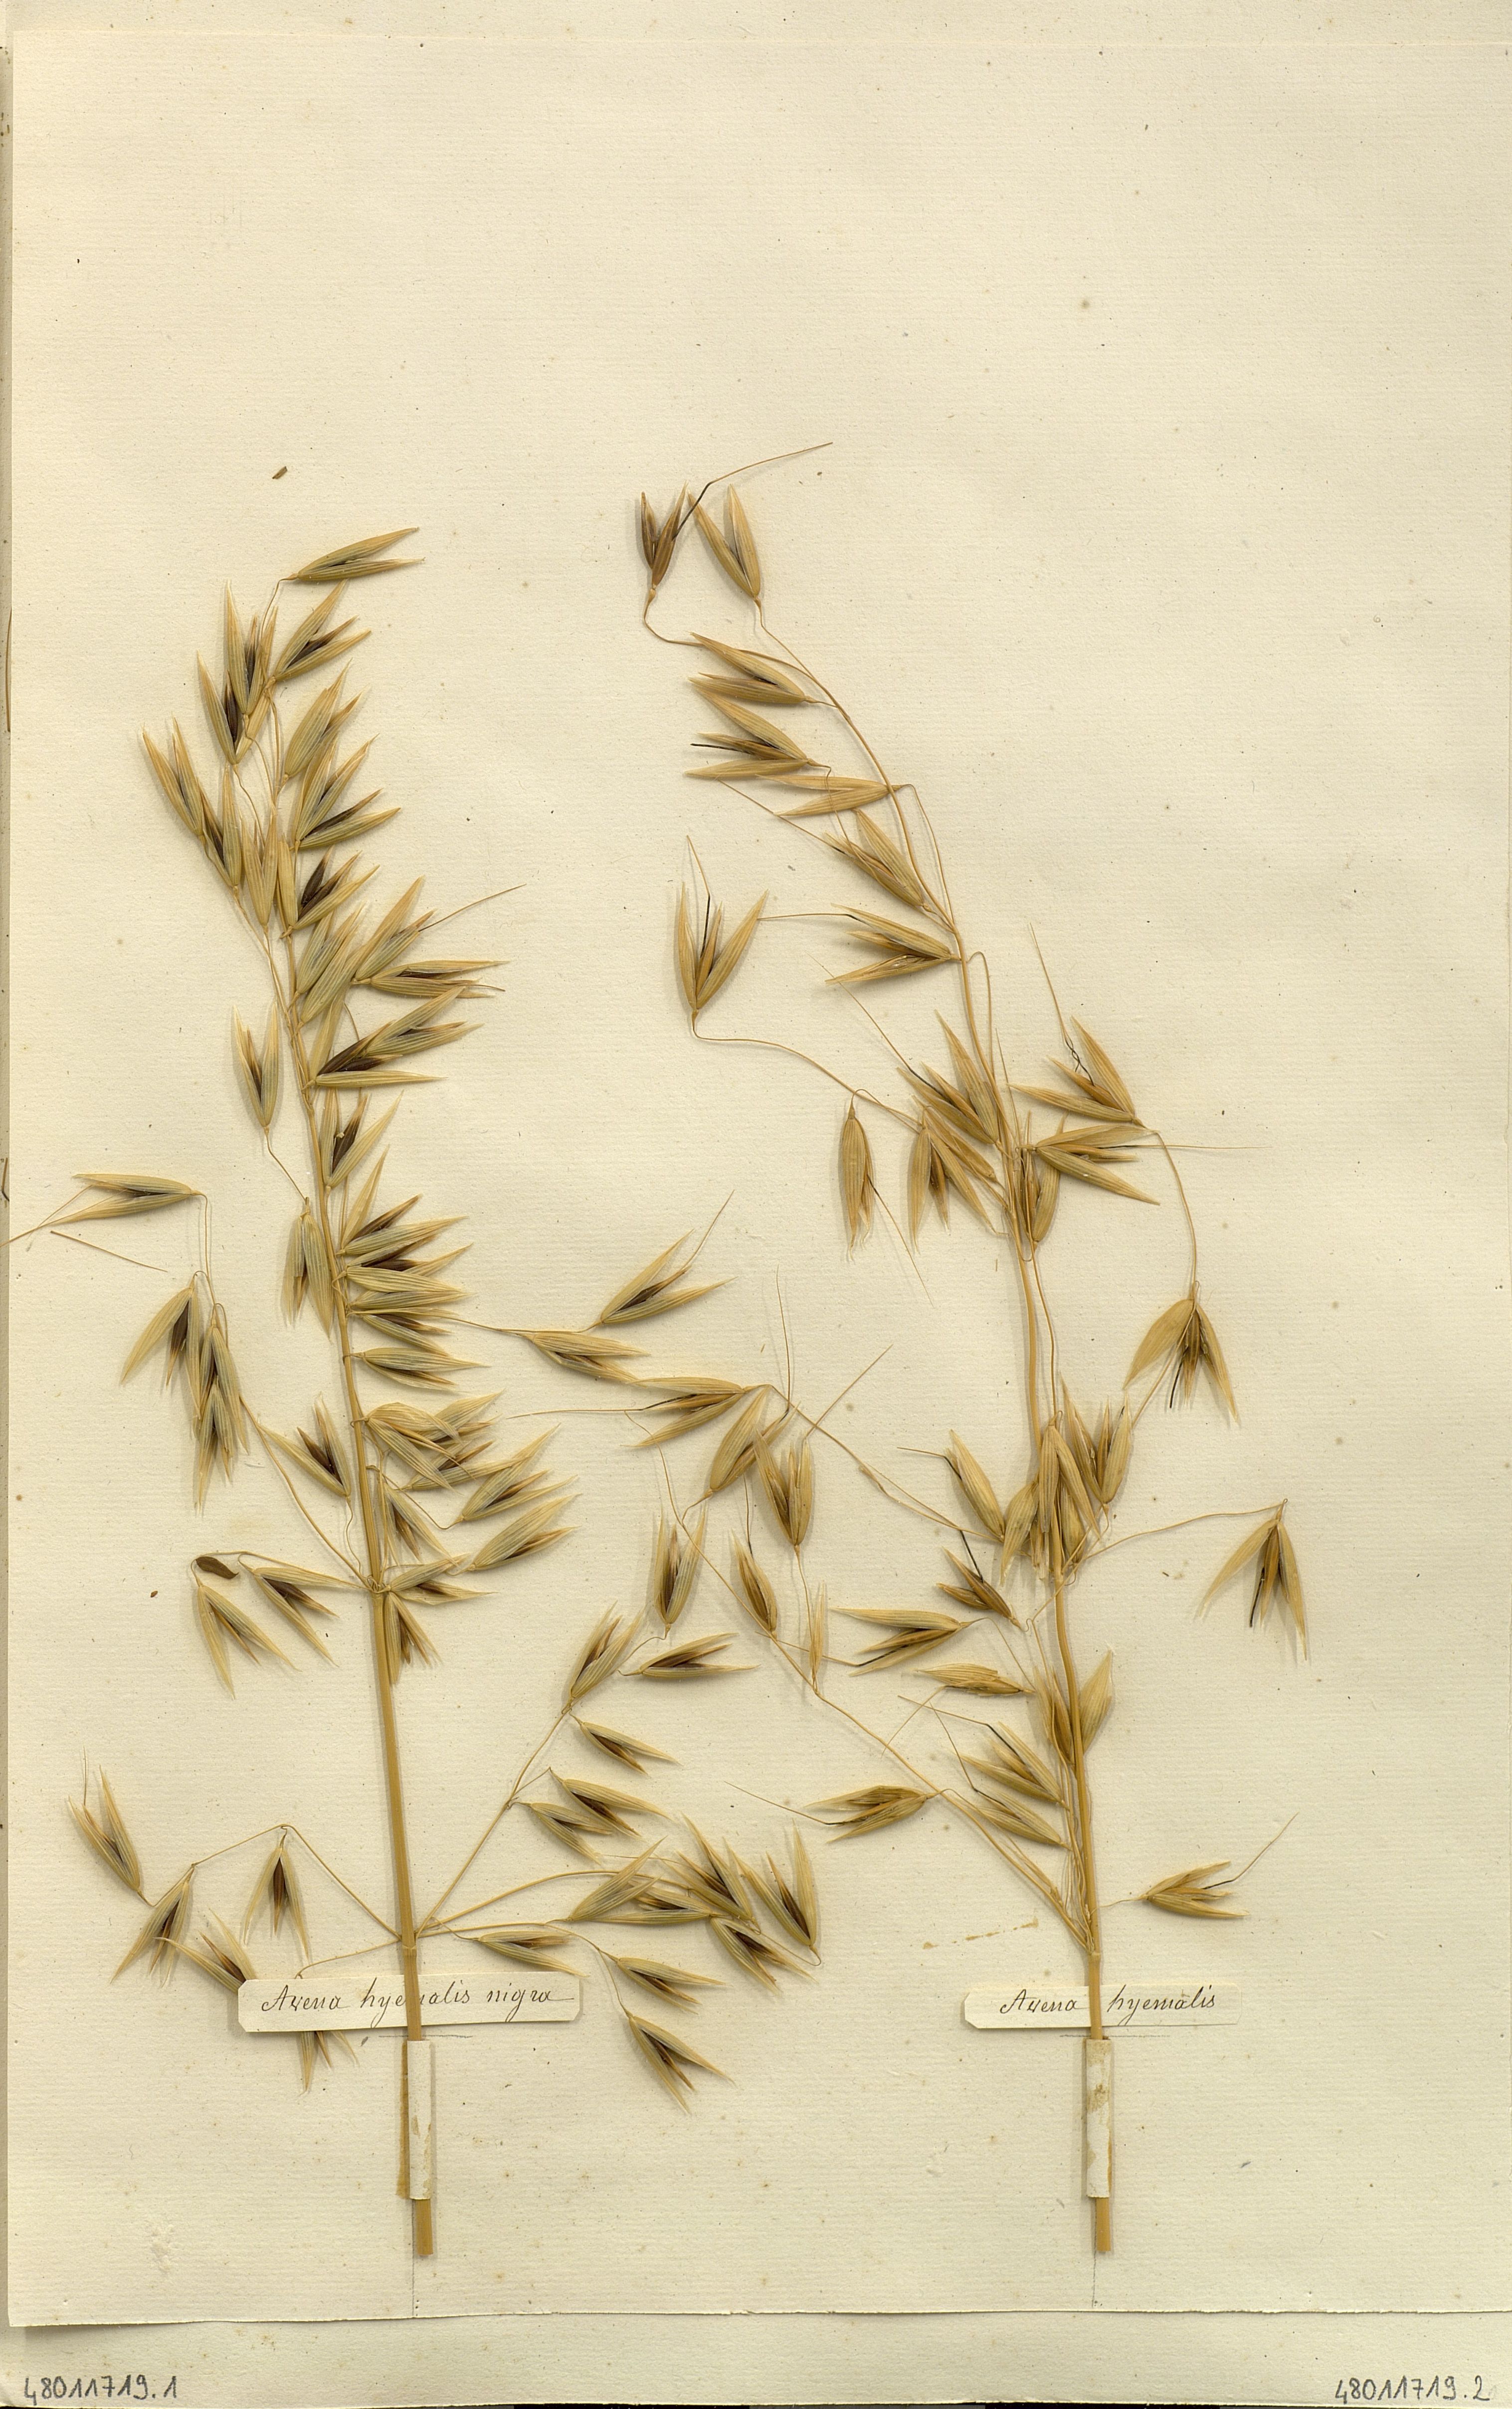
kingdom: Plantae
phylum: Tracheophyta
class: Liliopsida
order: Poales
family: Poaceae
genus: Avena
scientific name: Avena sativa
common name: Oat
